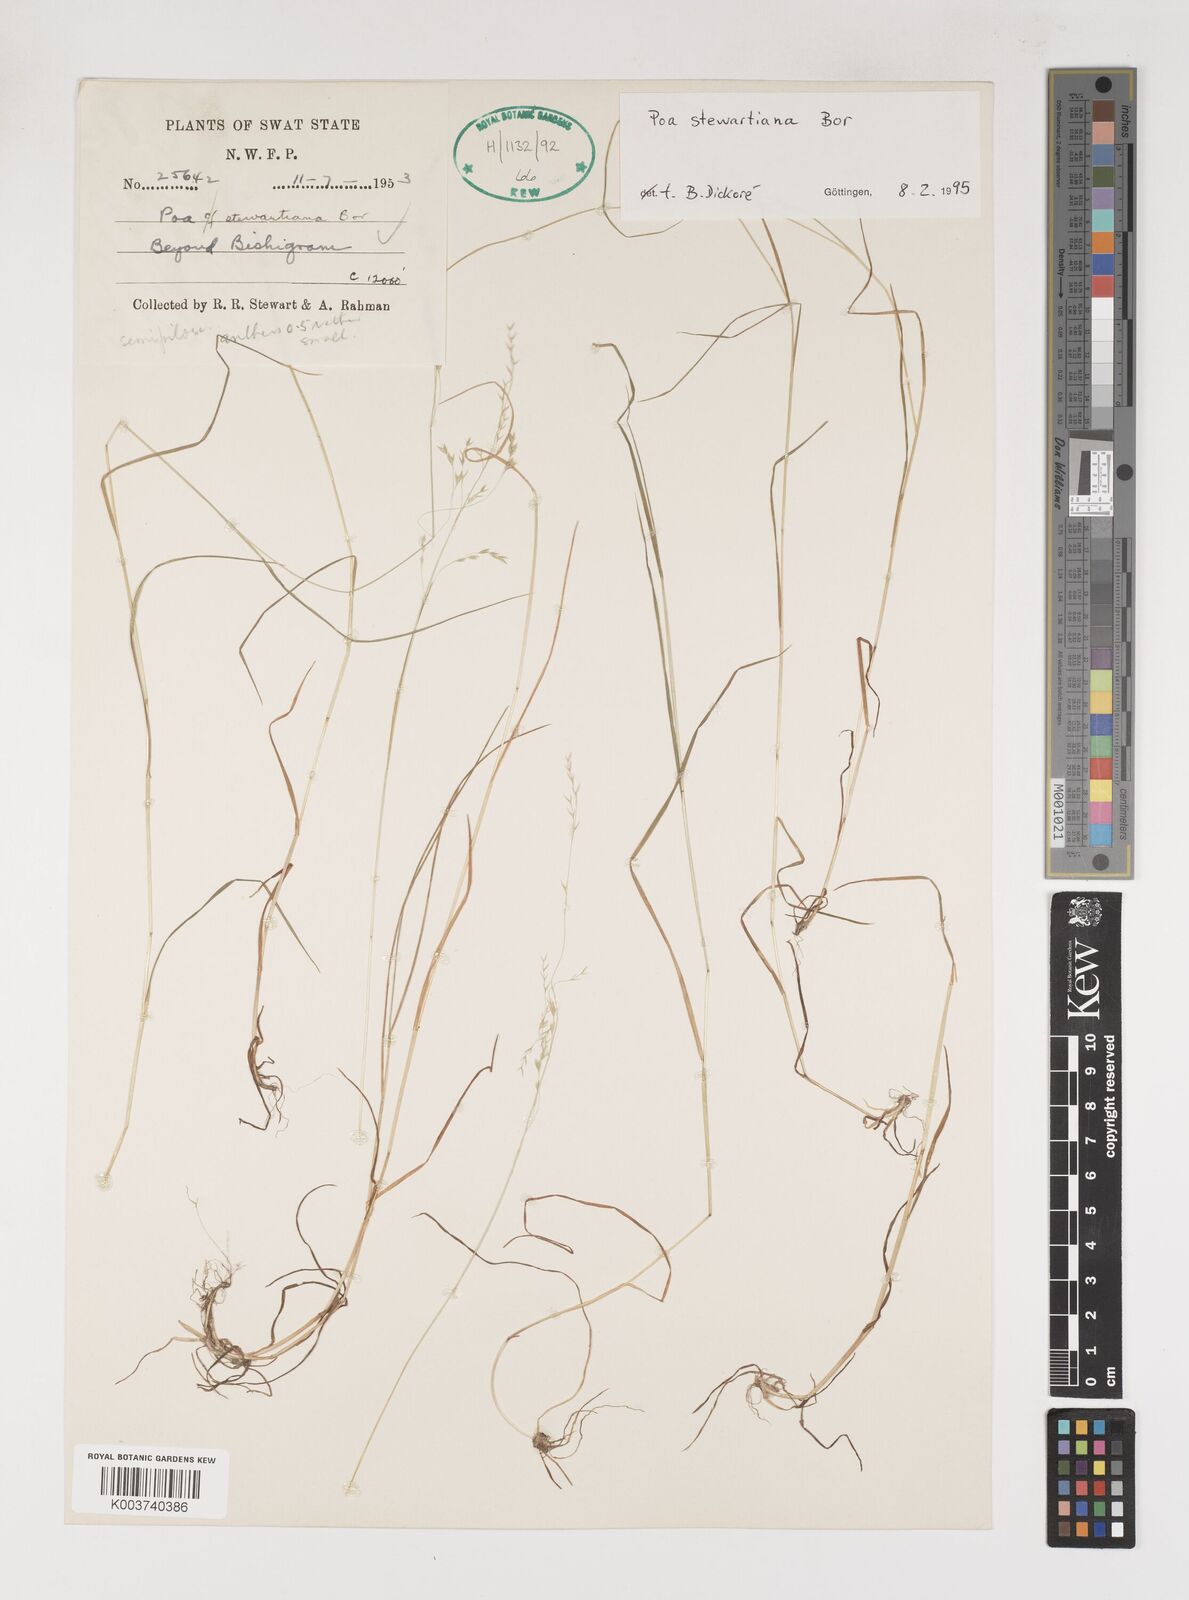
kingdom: Plantae
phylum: Tracheophyta
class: Liliopsida
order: Poales
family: Poaceae
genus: Poa
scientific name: Poa stewartiana
